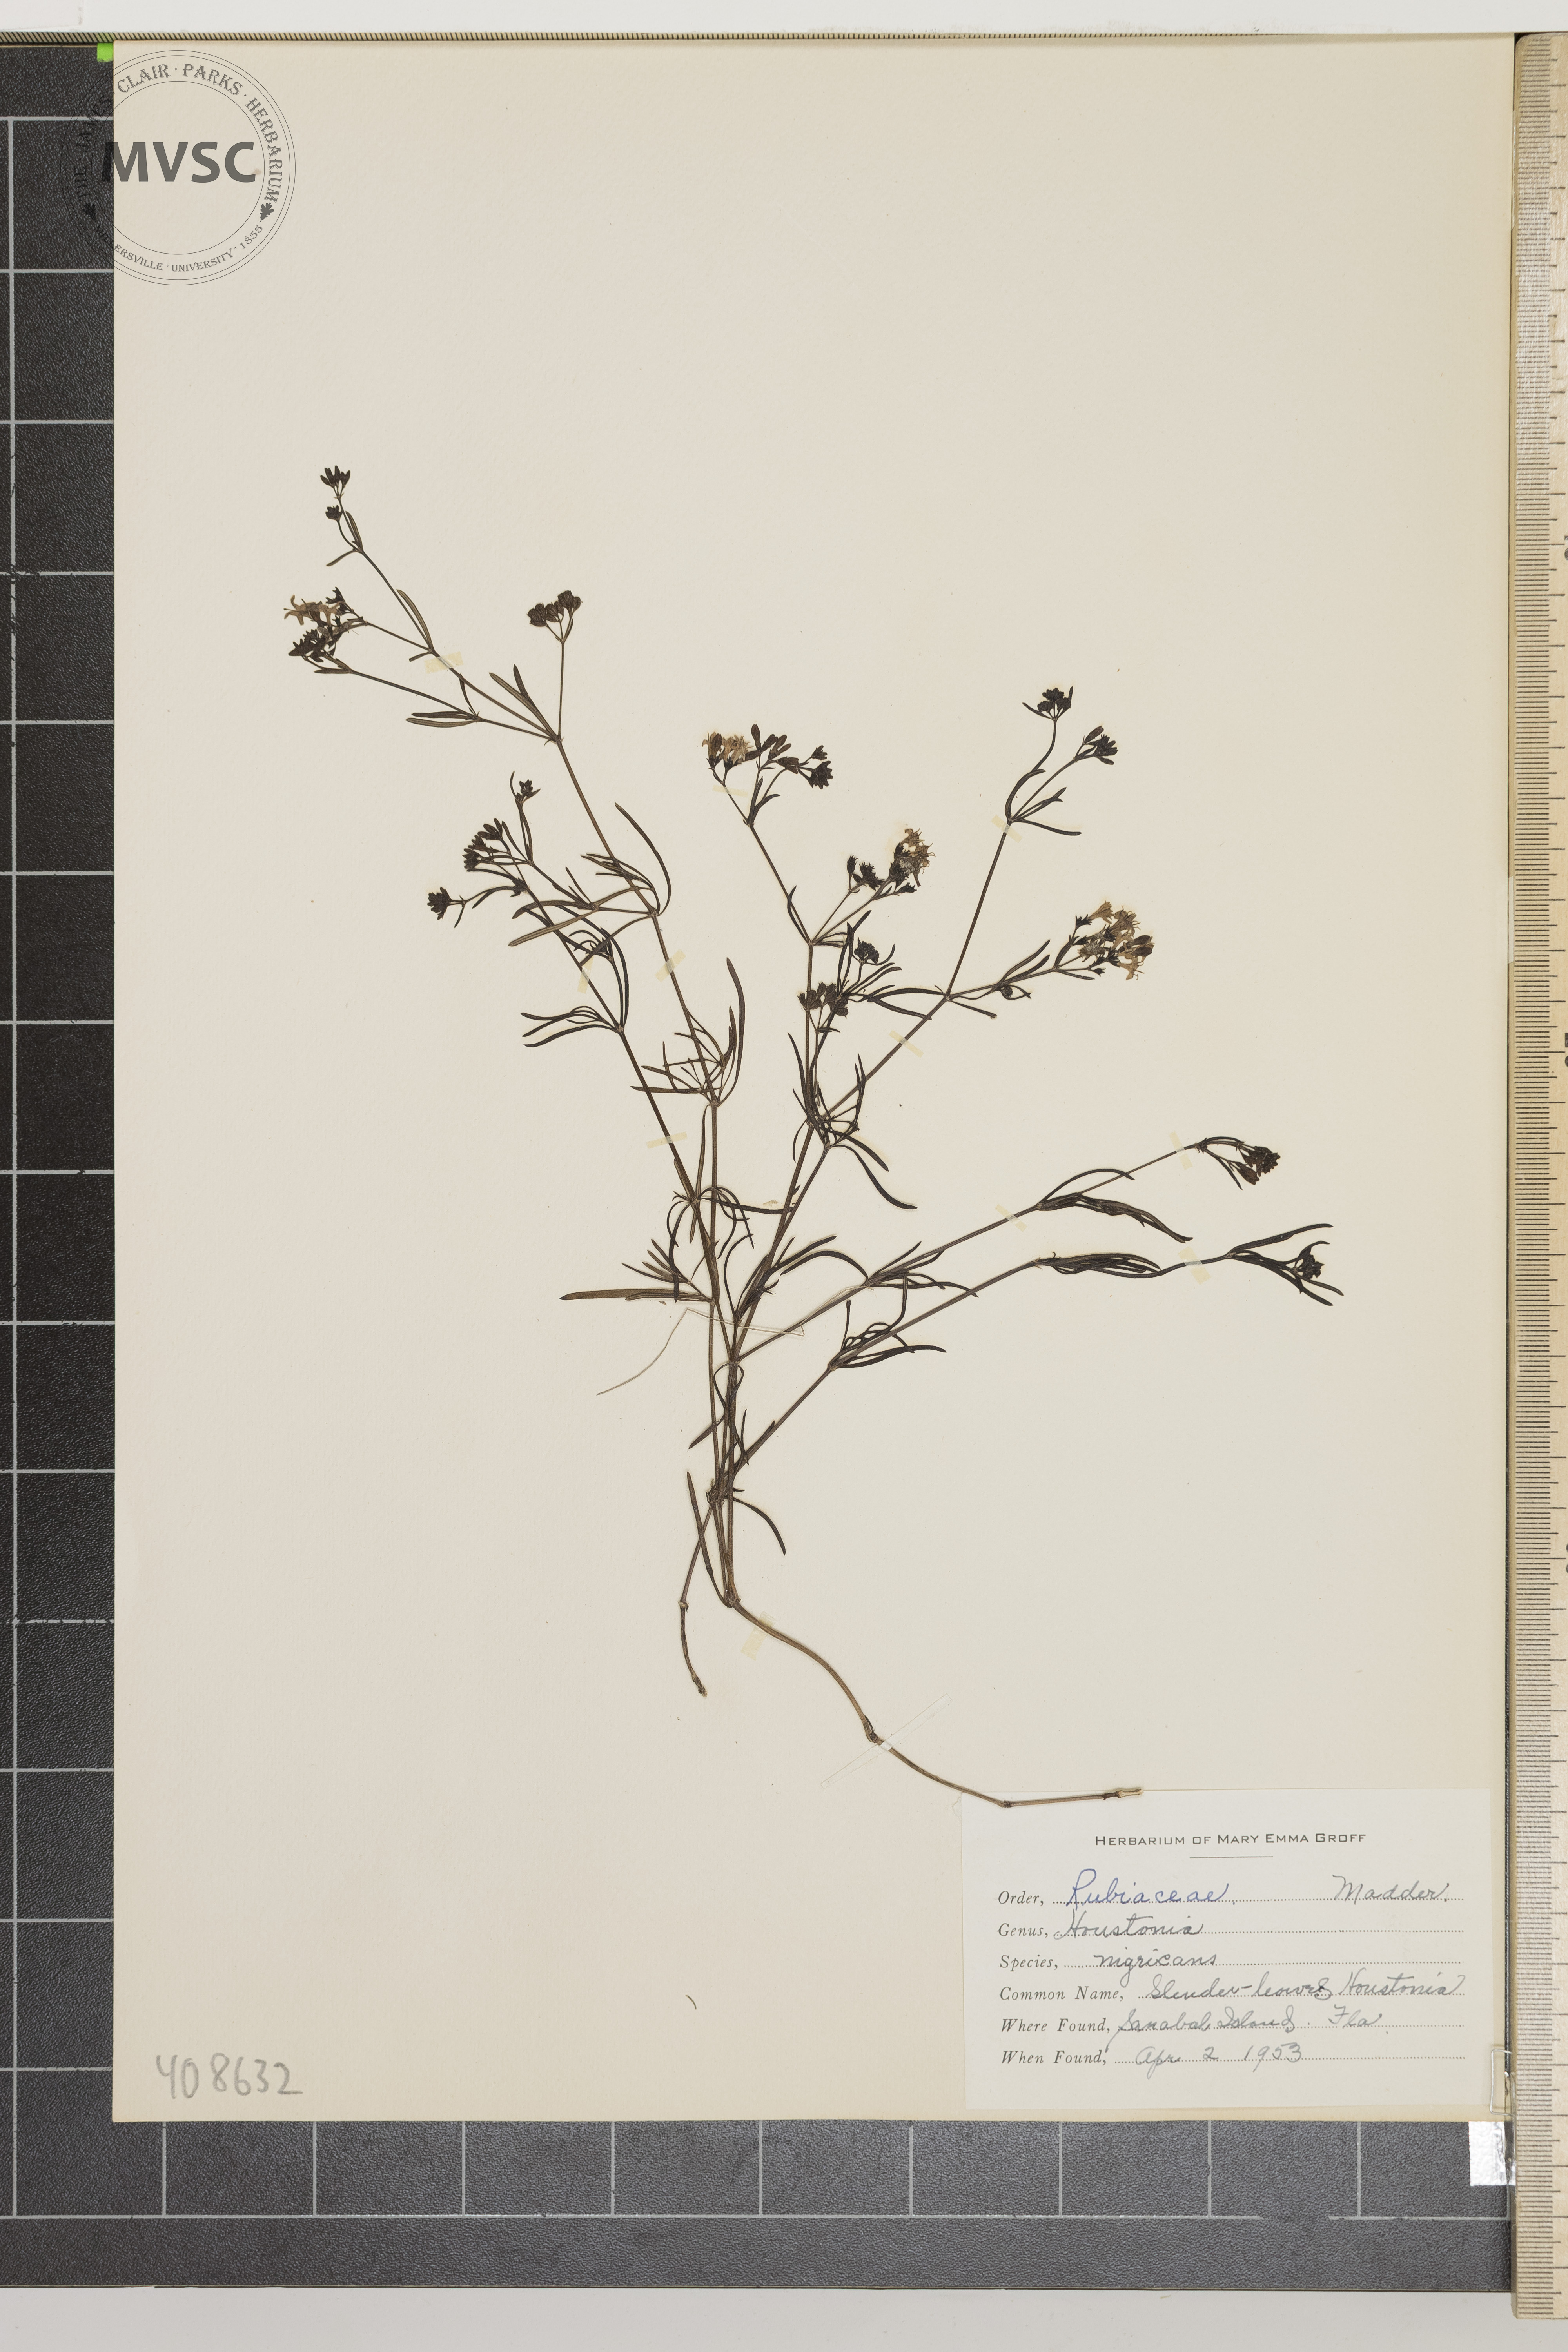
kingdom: Plantae
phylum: Tracheophyta
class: Magnoliopsida
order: Gentianales
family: Rubiaceae
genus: Stenaria
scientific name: Stenaria nigricans
